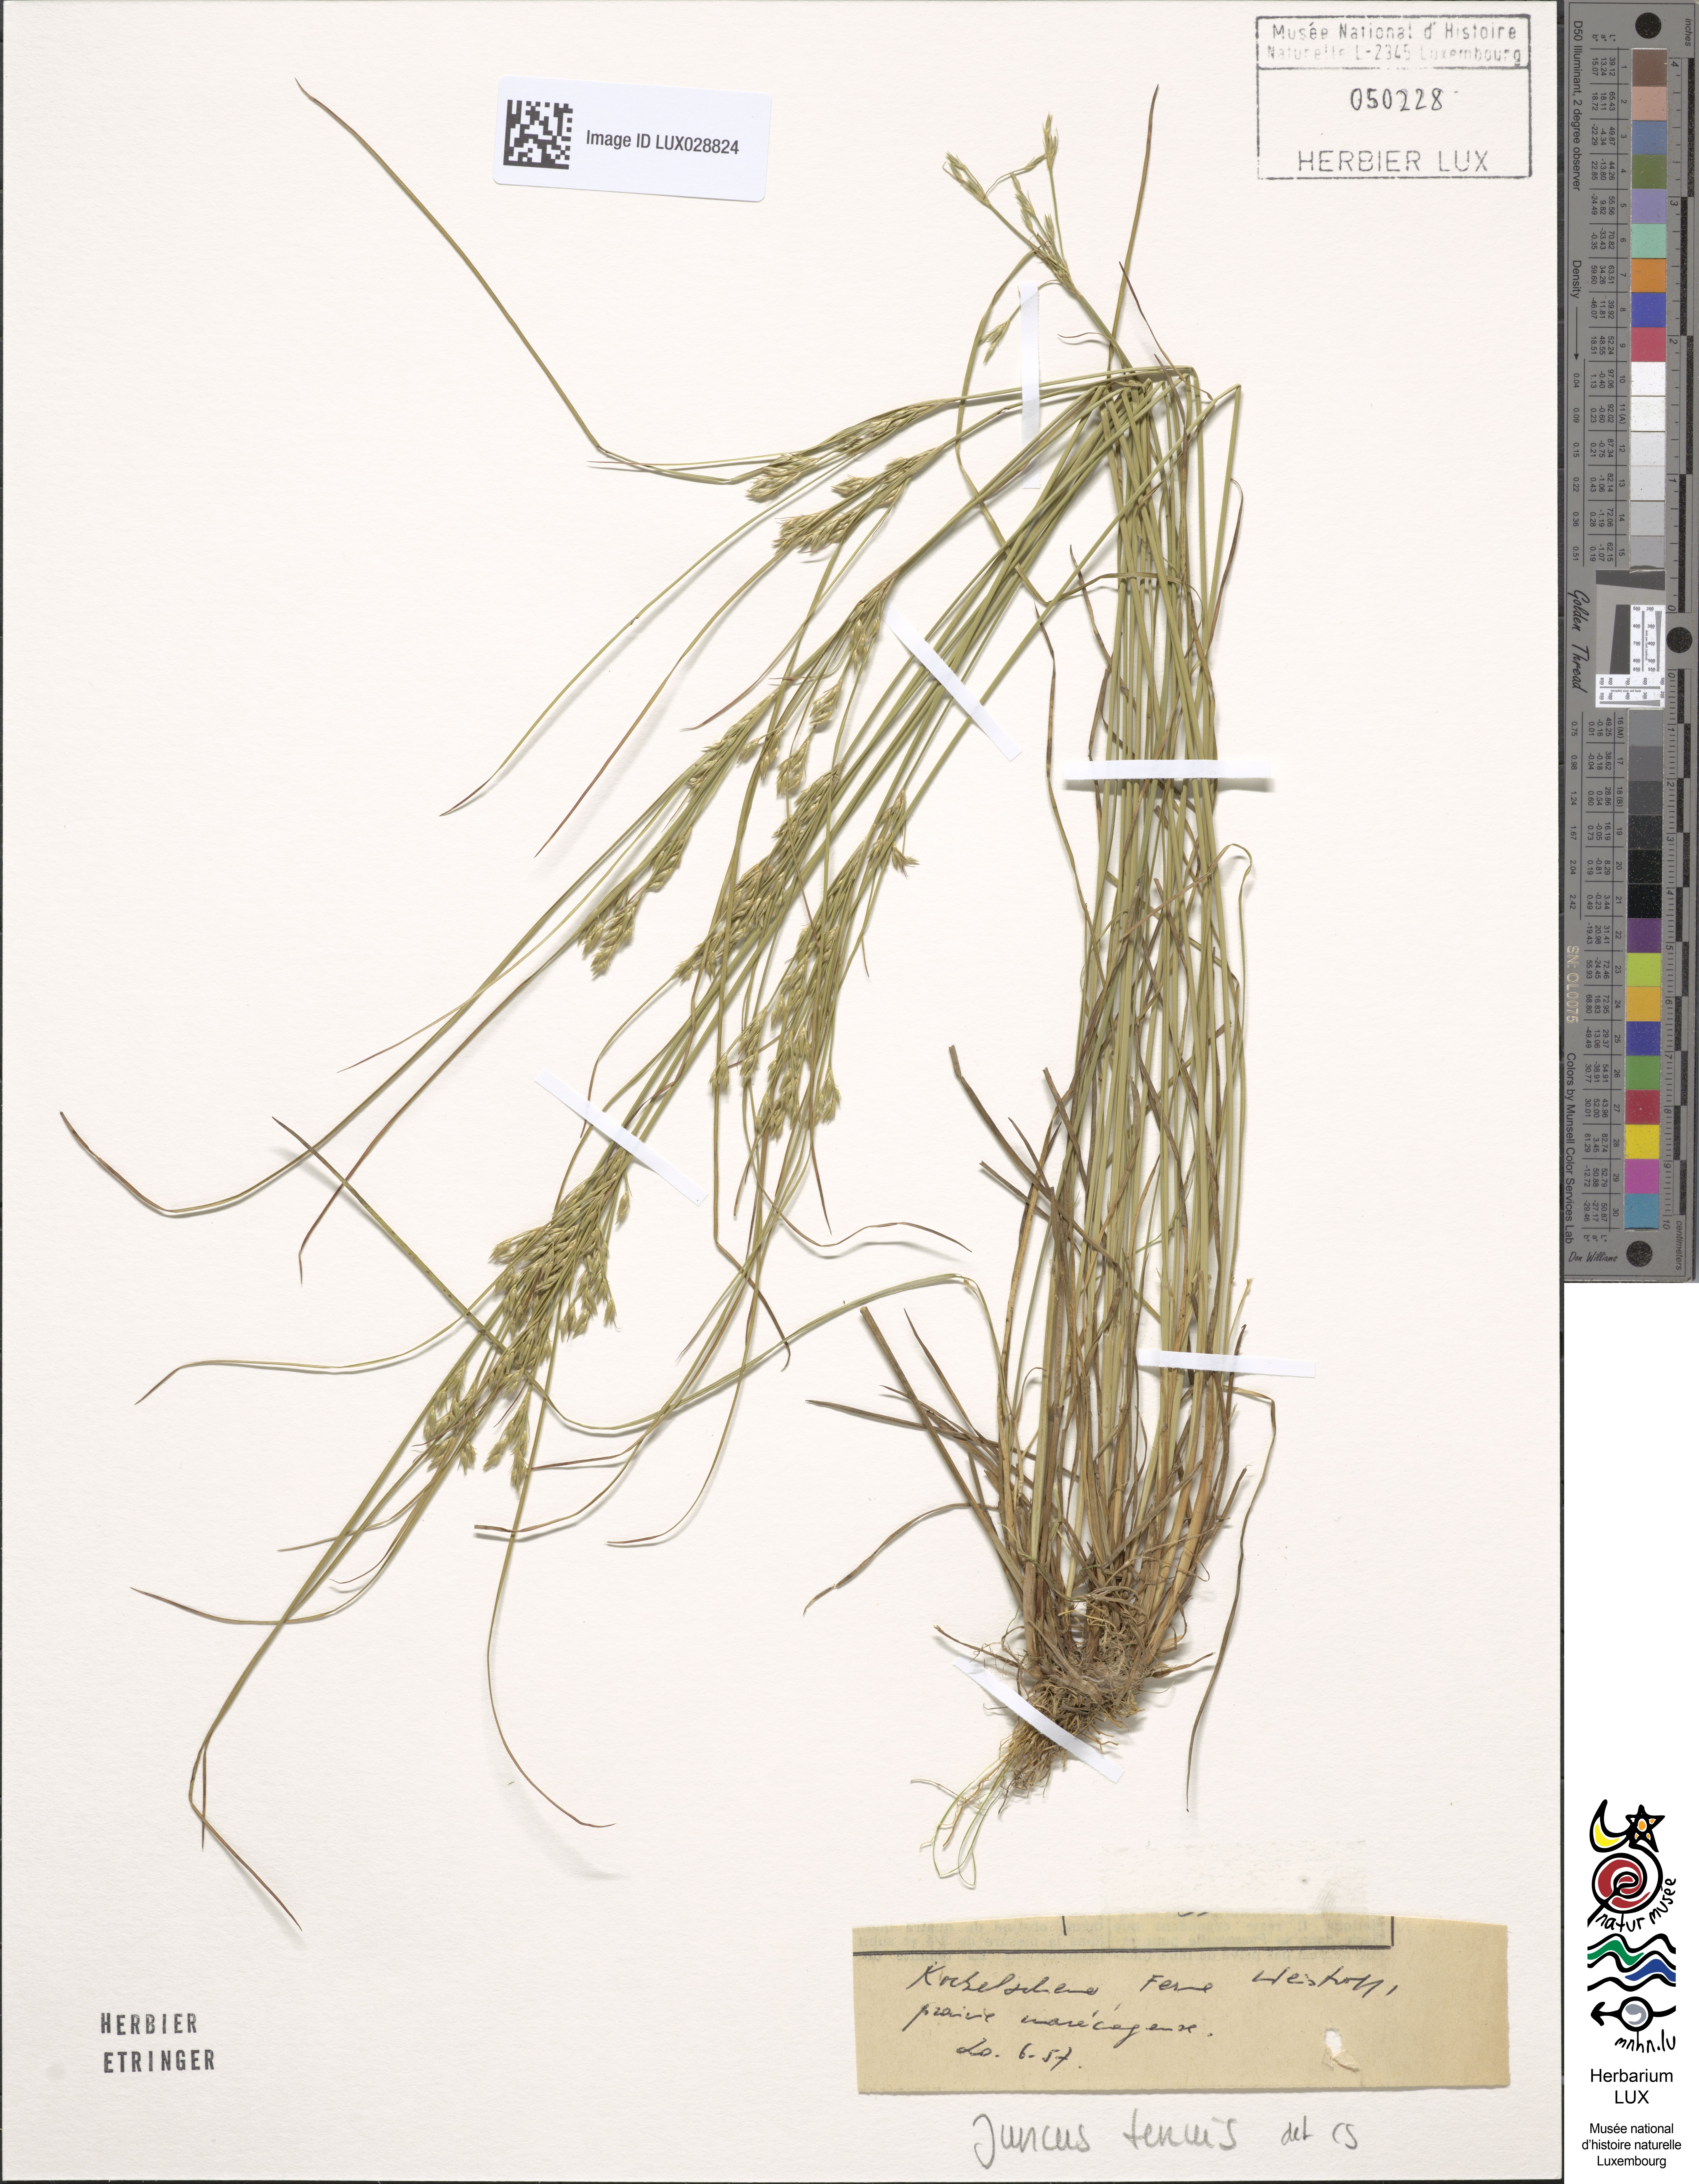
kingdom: Plantae
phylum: Tracheophyta
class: Liliopsida
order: Poales
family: Juncaceae
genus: Juncus
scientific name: Juncus tenuis
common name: Slender rush
